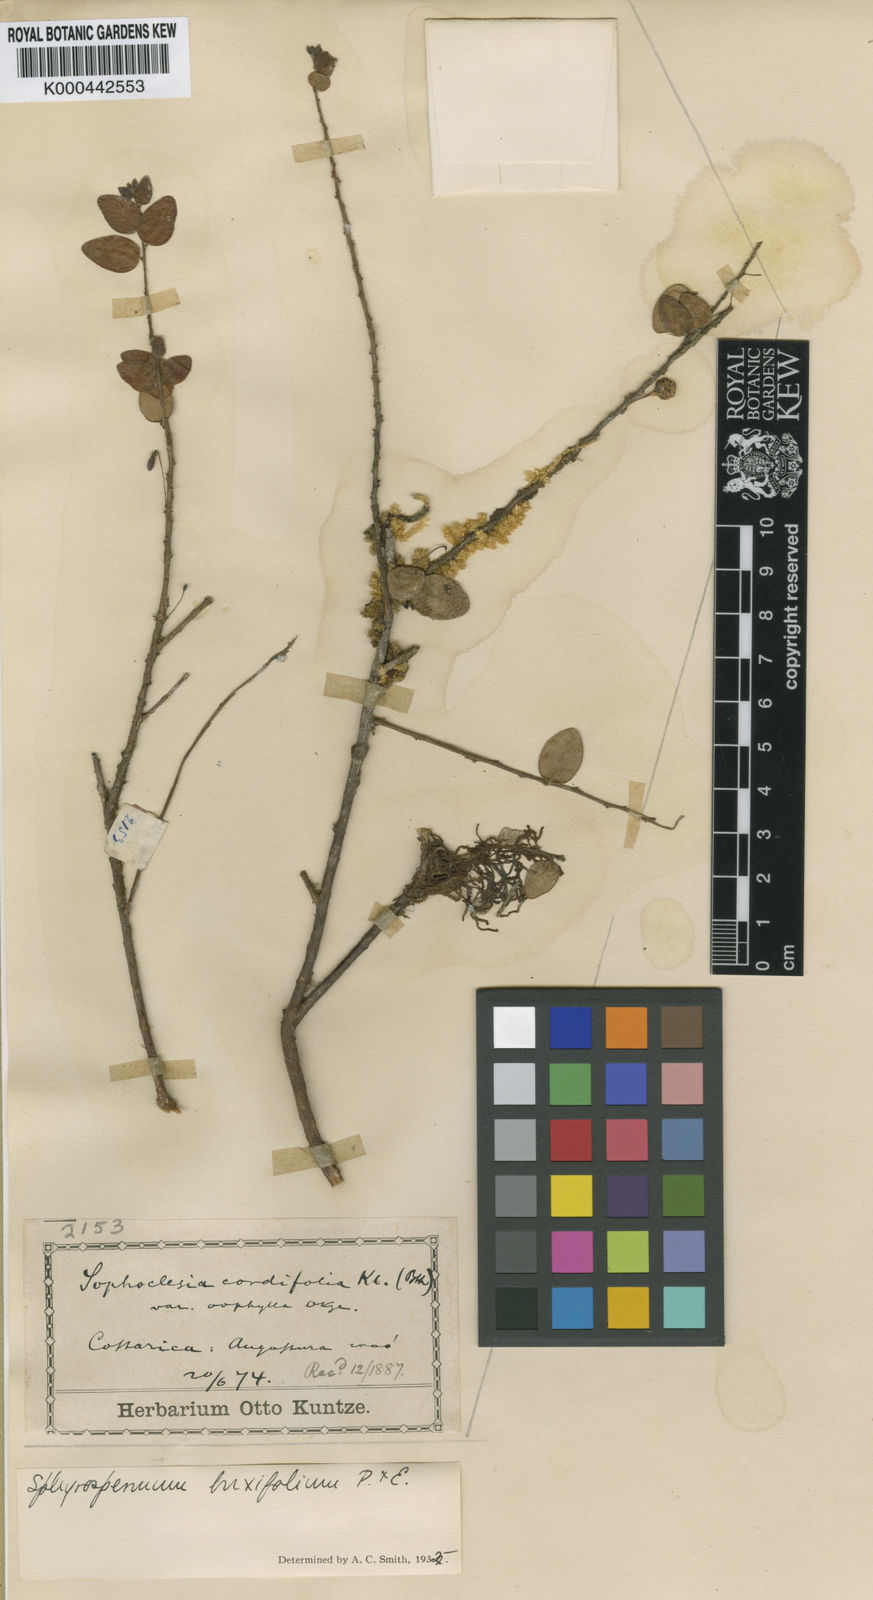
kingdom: Plantae
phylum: Tracheophyta
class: Magnoliopsida
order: Ericales
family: Ericaceae
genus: Sphyrospermum
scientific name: Sphyrospermum buxifolium
